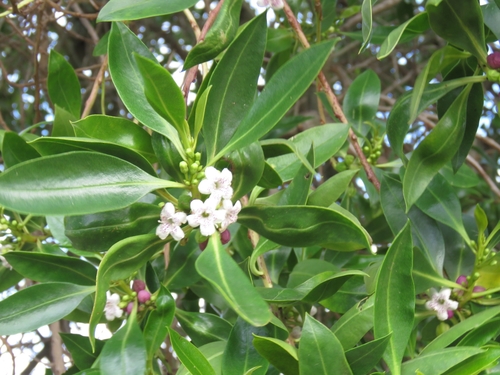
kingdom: Plantae
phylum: Tracheophyta
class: Magnoliopsida
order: Lamiales
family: Scrophulariaceae
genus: Myoporum
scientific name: Myoporum laetum
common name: Ngaio tree
